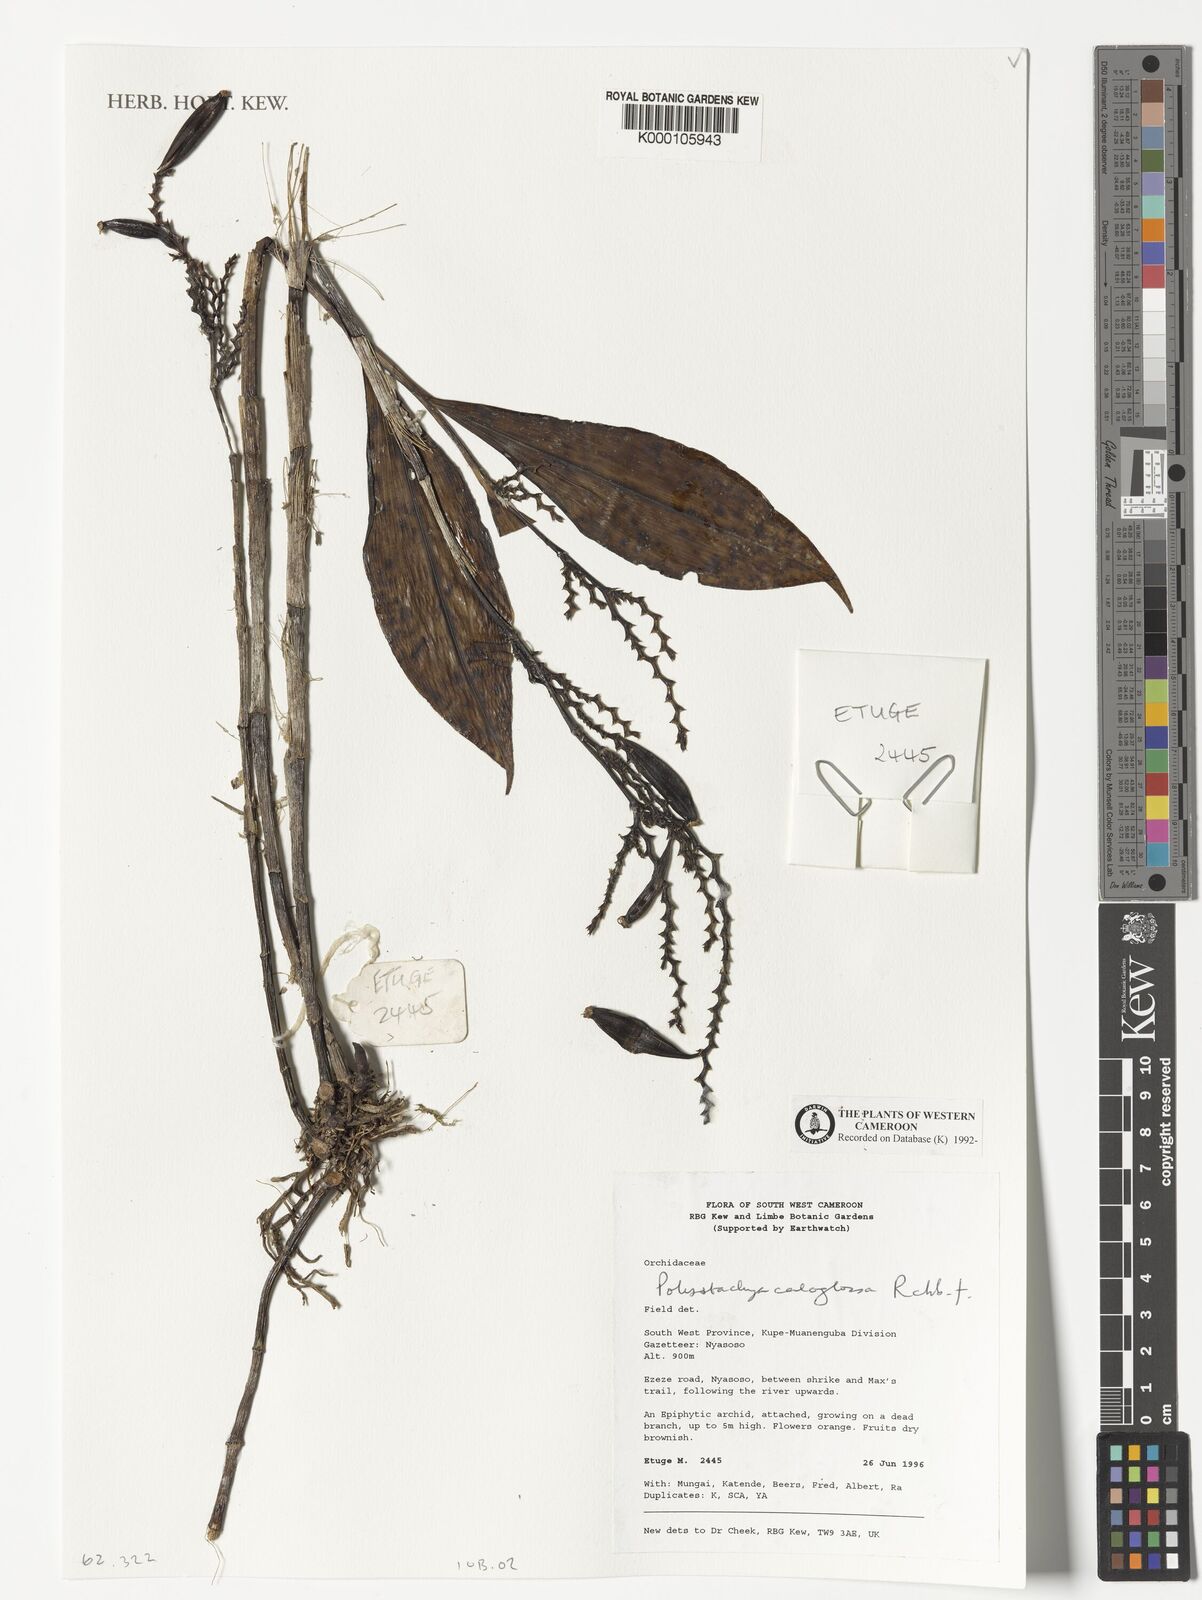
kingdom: Plantae
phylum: Tracheophyta
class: Liliopsida
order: Asparagales
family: Orchidaceae
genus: Polystachya
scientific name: Polystachya caloglossa
